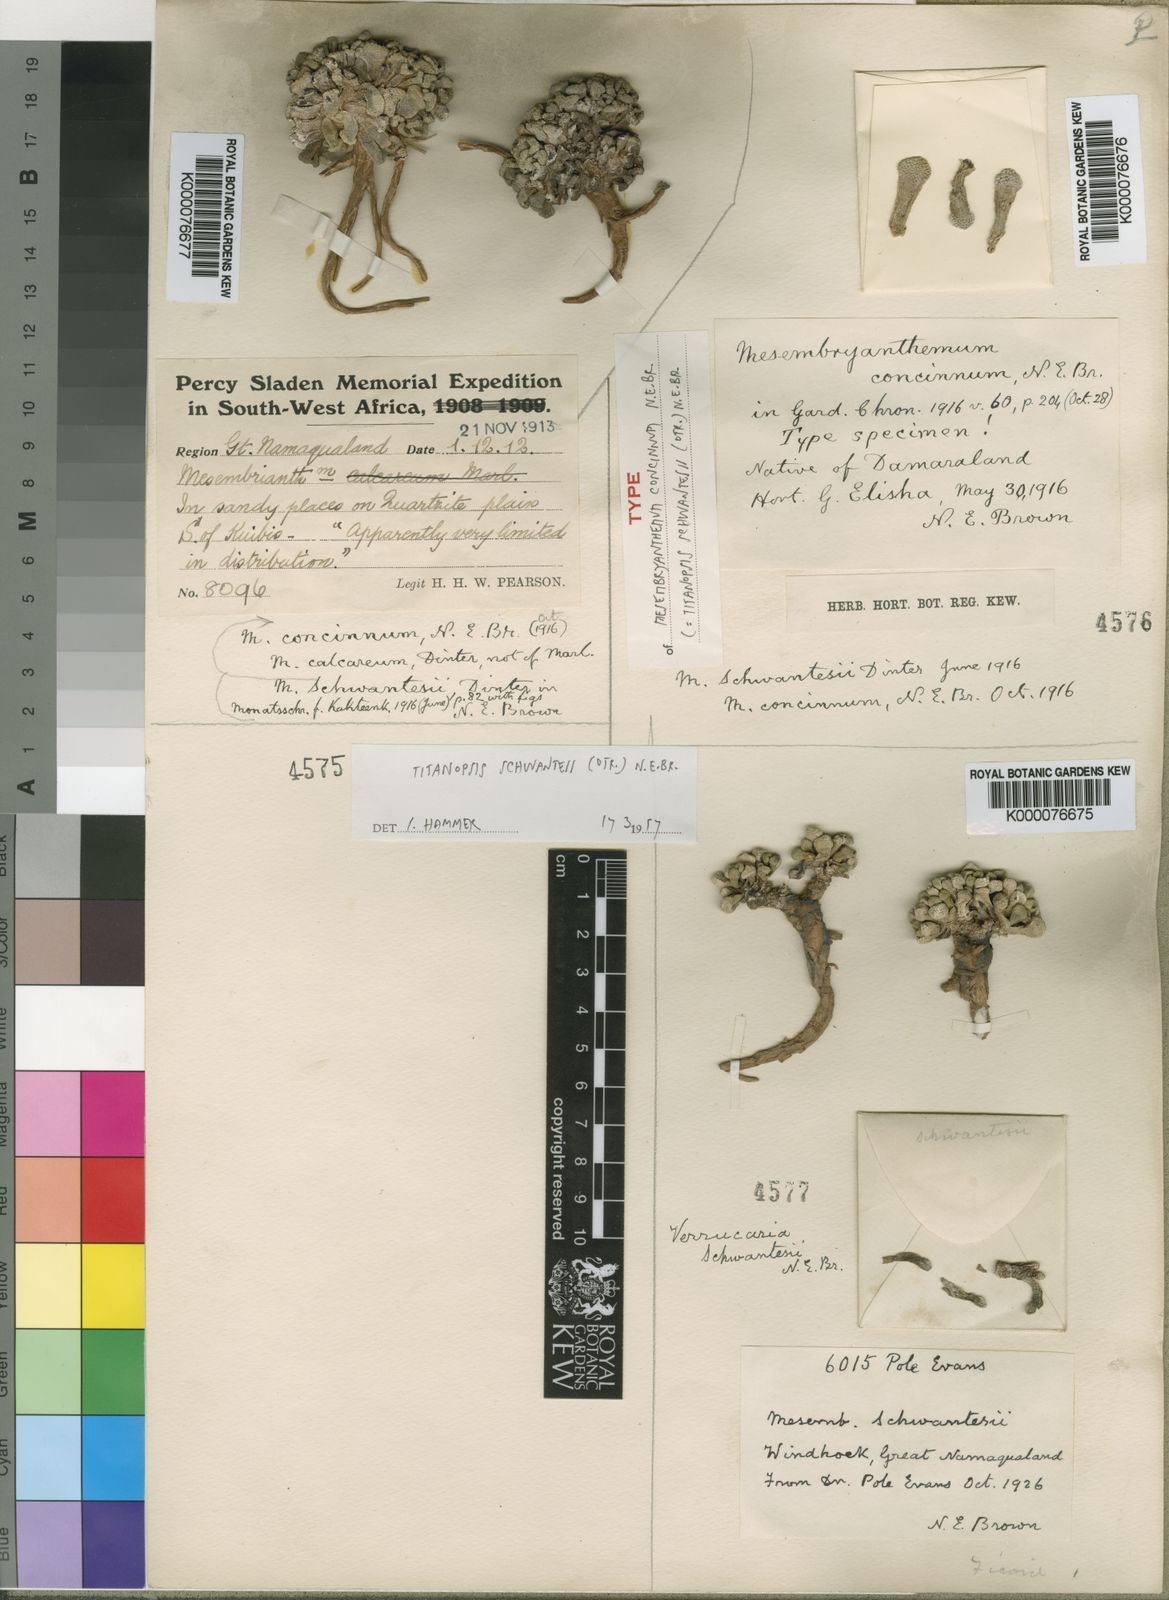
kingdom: Plantae
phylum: Tracheophyta
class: Magnoliopsida
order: Caryophyllales
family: Aizoaceae
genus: Titanopsis
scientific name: Titanopsis schwantesii
